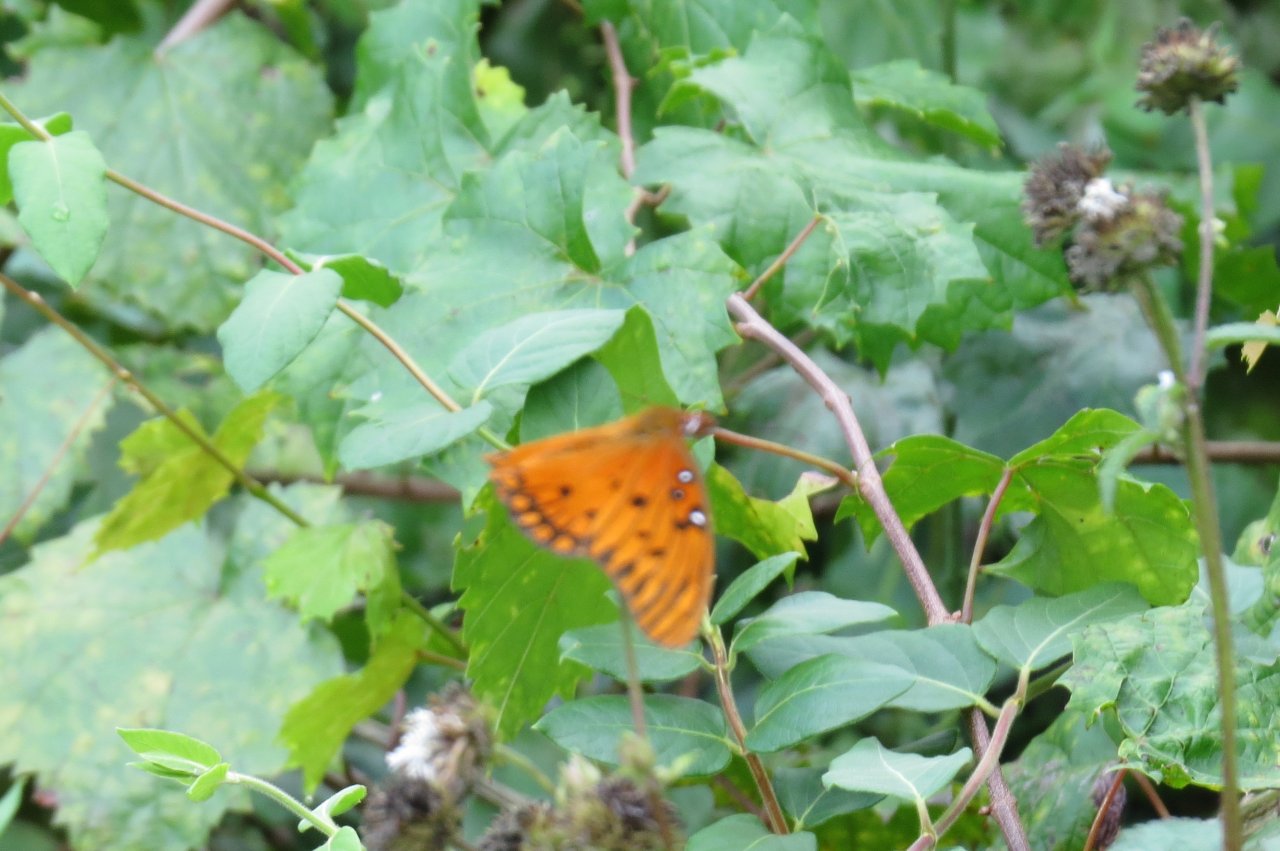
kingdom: Animalia
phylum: Arthropoda
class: Insecta
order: Lepidoptera
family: Nymphalidae
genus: Dione
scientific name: Dione vanillae
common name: Gulf Fritillary
